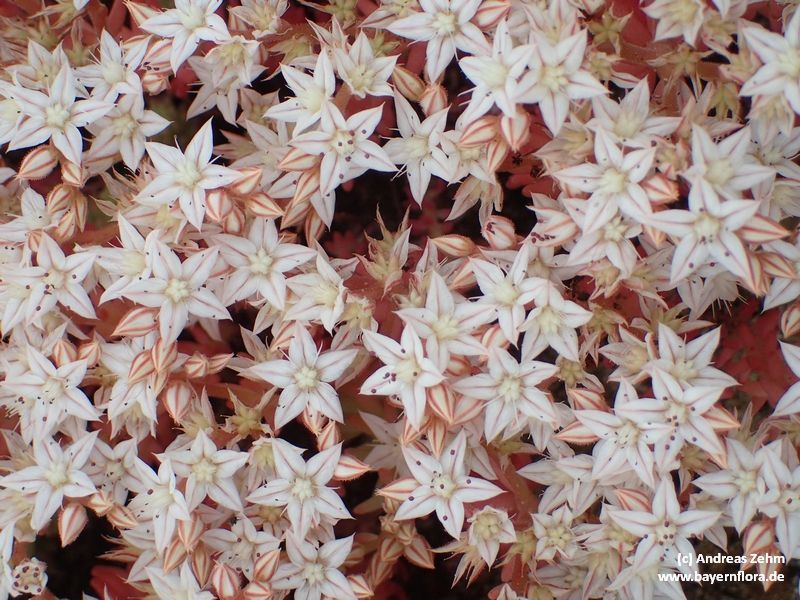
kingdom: Plantae
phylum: Tracheophyta
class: Magnoliopsida
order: Saxifragales
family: Crassulaceae
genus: Sedum
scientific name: Sedum album
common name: White stonecrop
